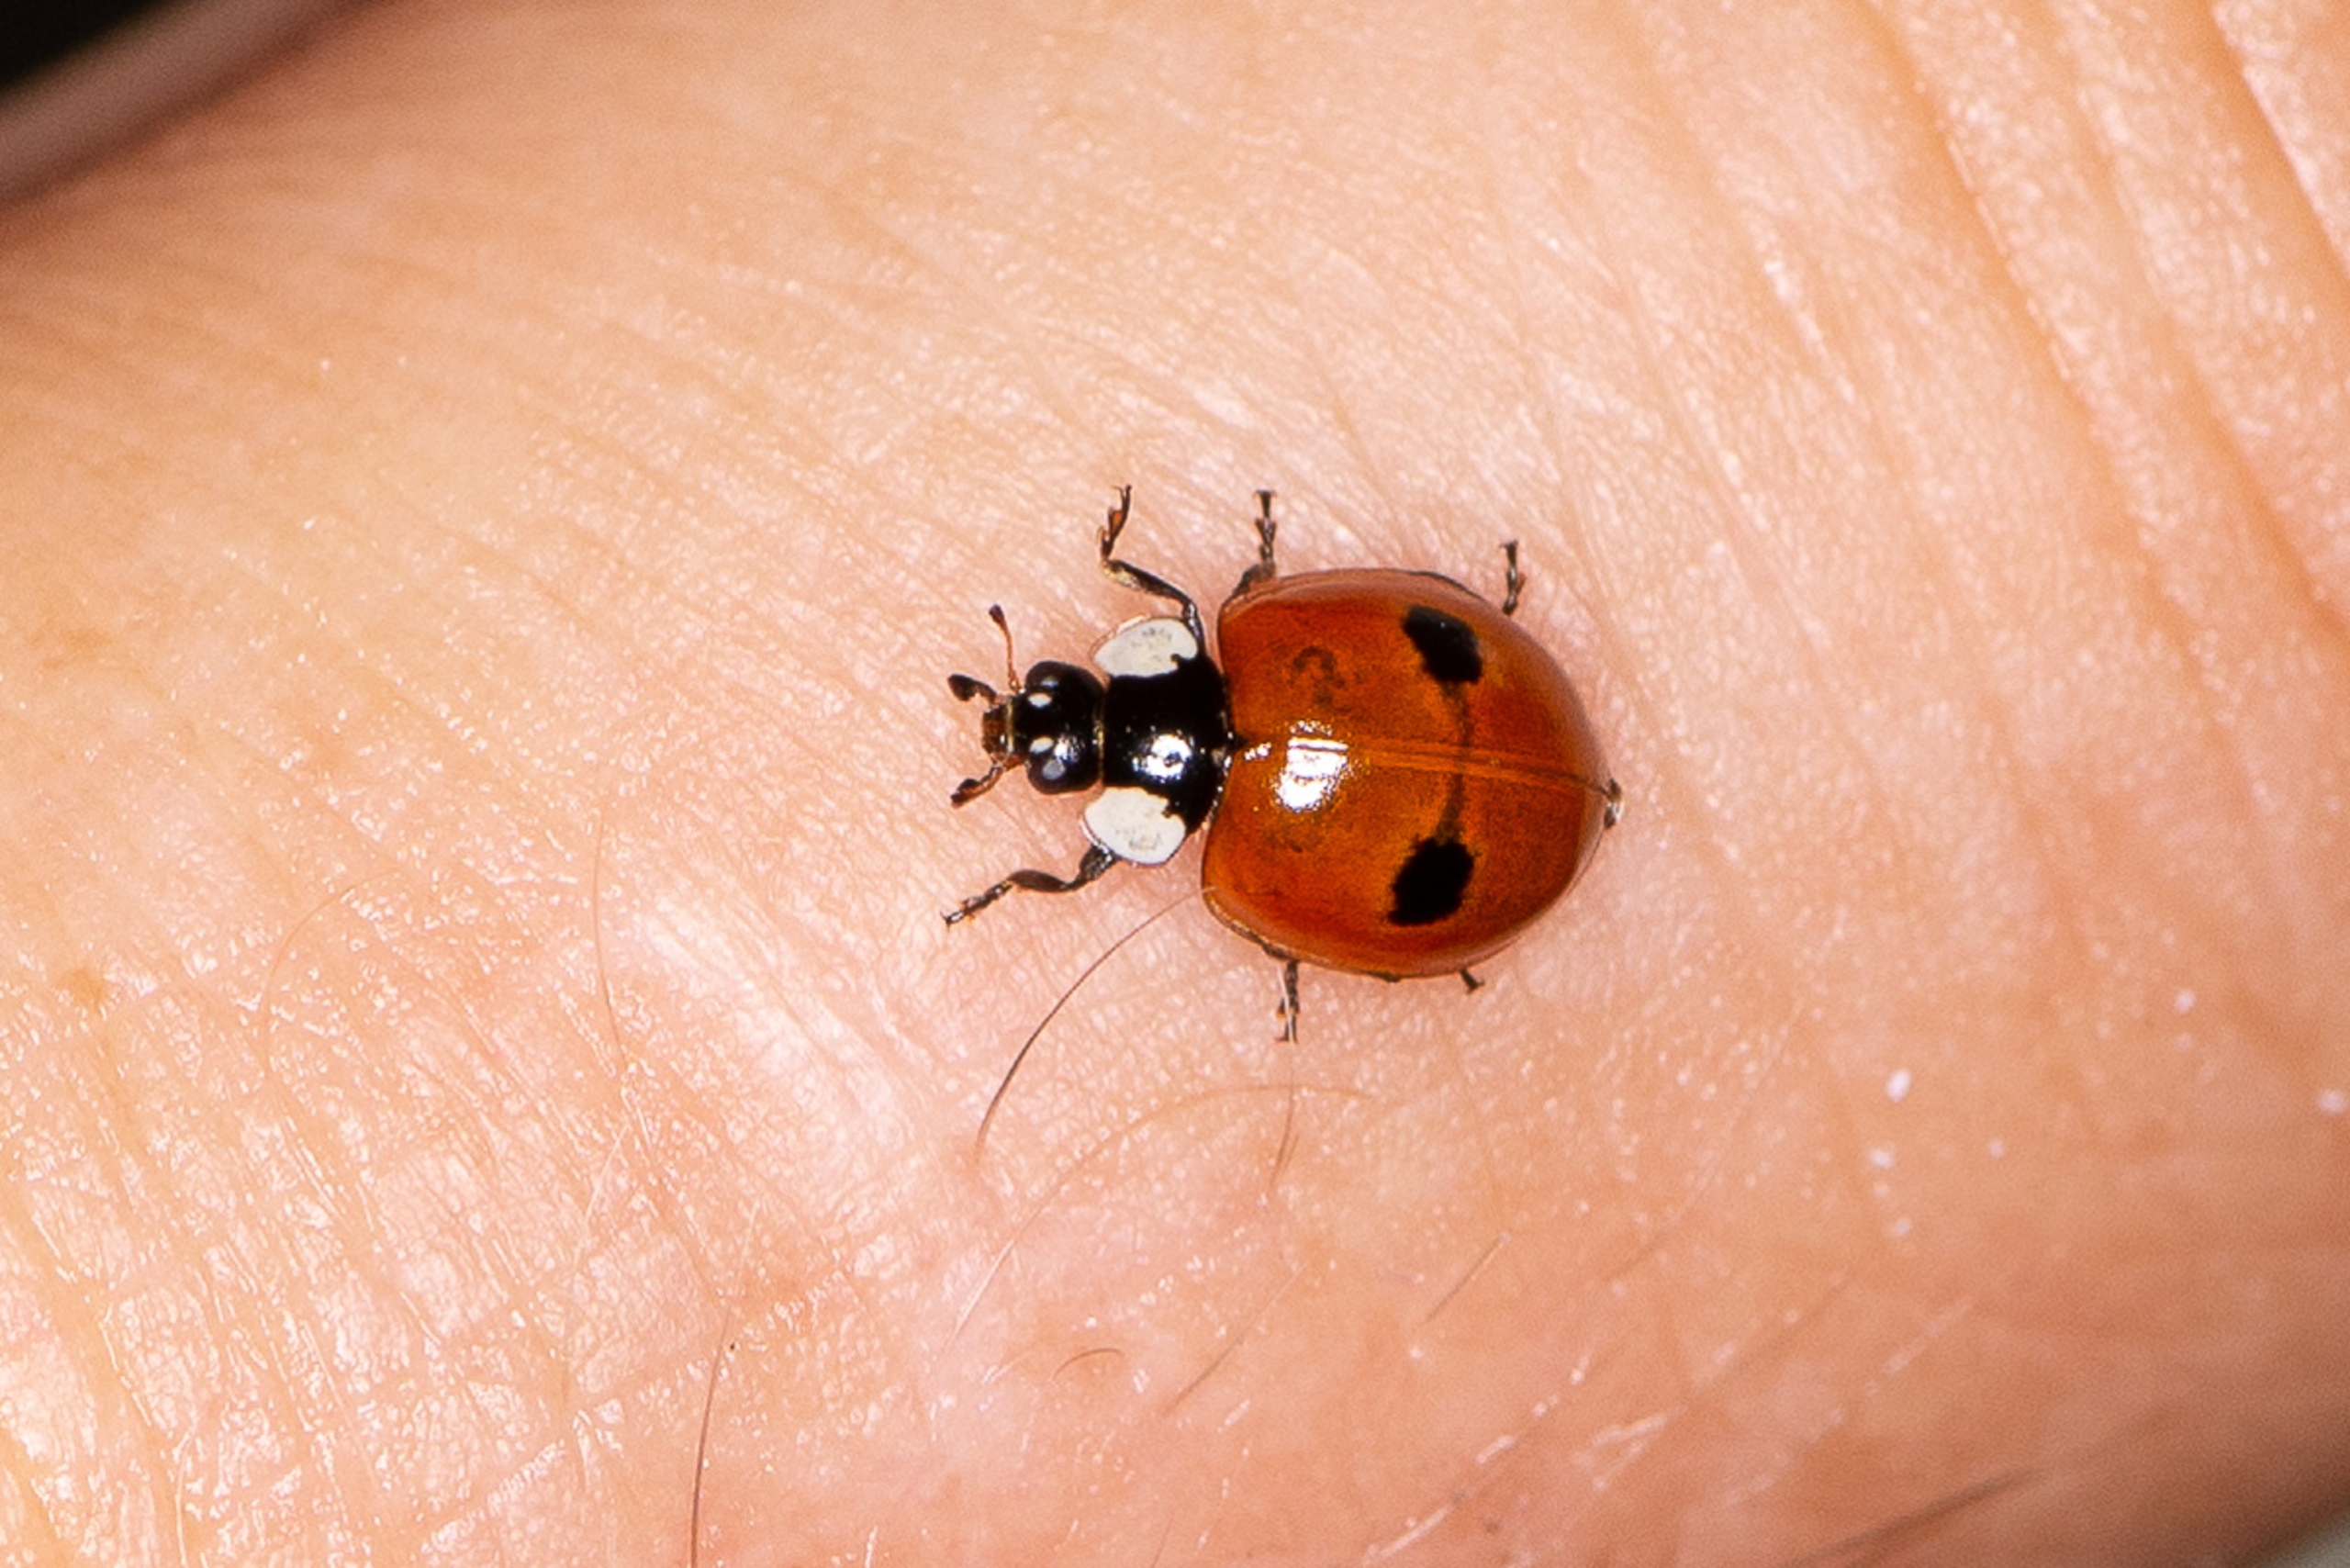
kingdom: Animalia
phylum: Arthropoda
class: Insecta
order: Coleoptera
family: Coccinellidae
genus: Adalia
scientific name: Adalia bipunctata
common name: Toplettet mariehøne
